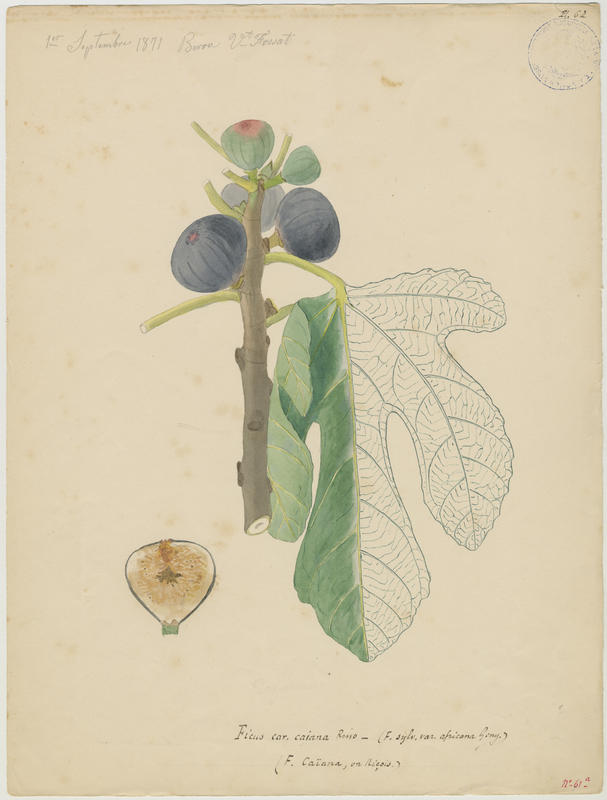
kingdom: Plantae
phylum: Tracheophyta
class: Magnoliopsida
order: Rosales
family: Moraceae
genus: Ficus
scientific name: Ficus carica
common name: Fig
